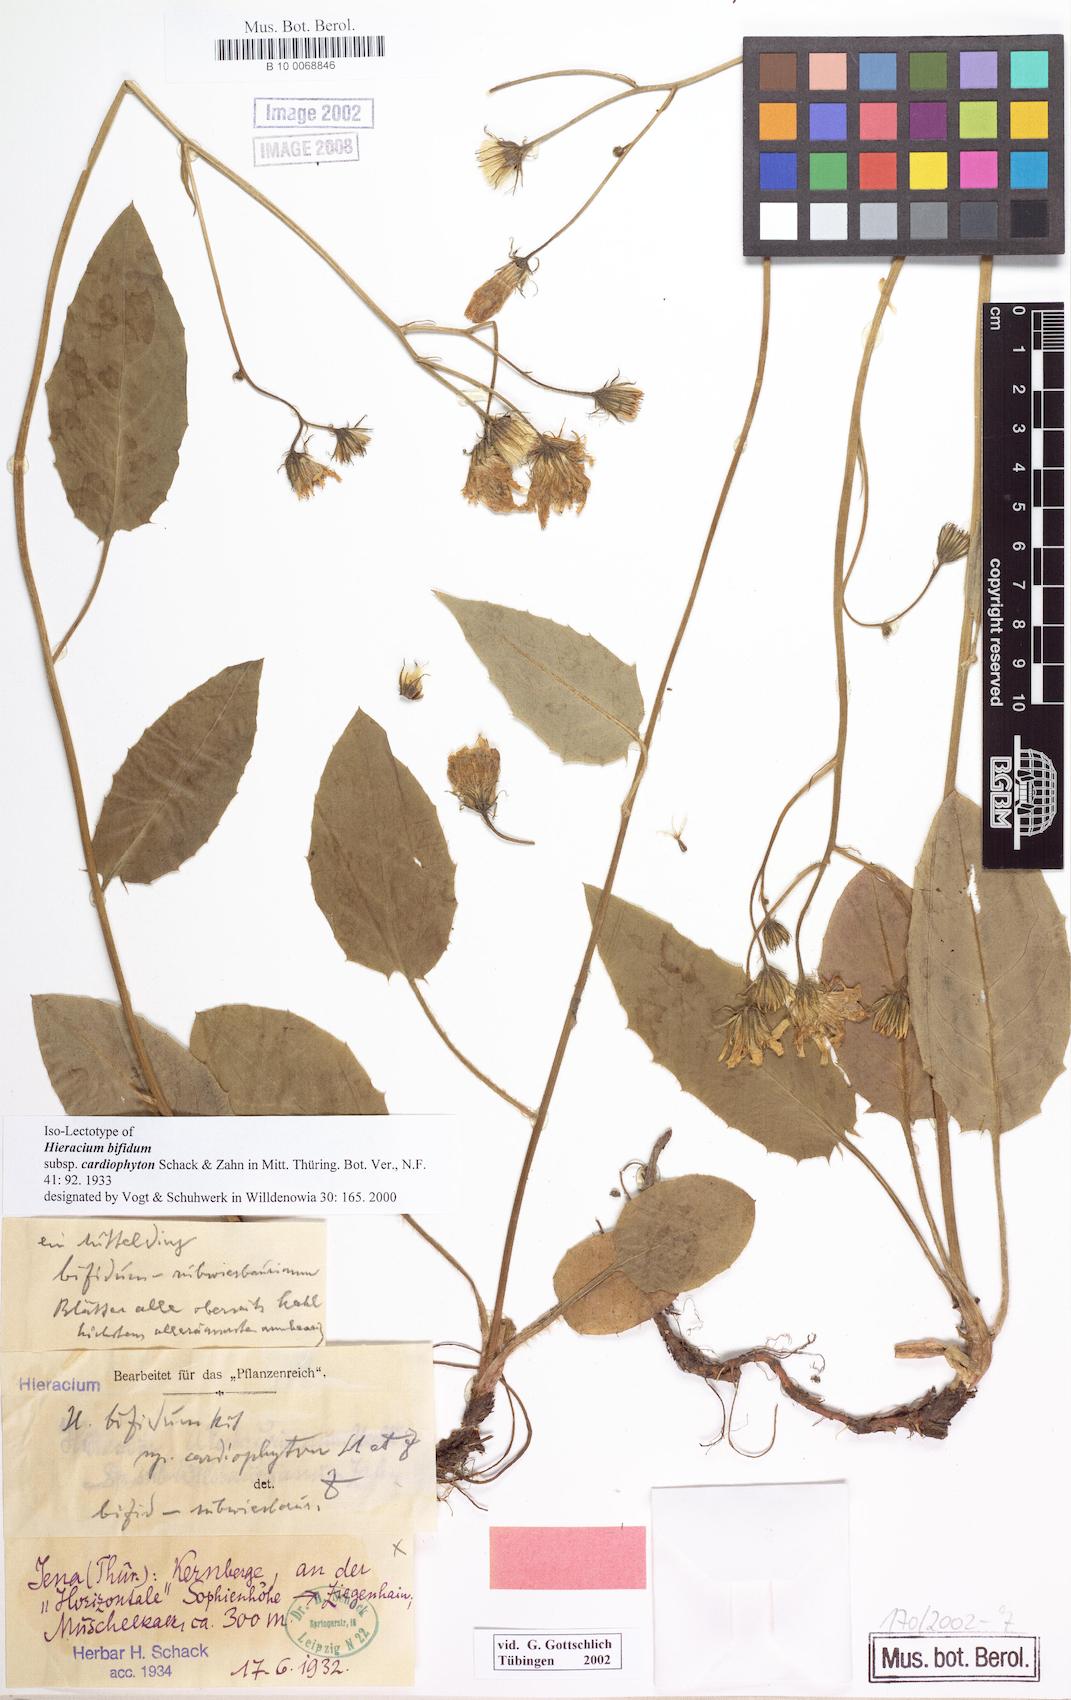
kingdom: Plantae
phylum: Tracheophyta
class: Magnoliopsida
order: Asterales
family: Asteraceae
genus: Hieracium
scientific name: Hieracium bifidum
